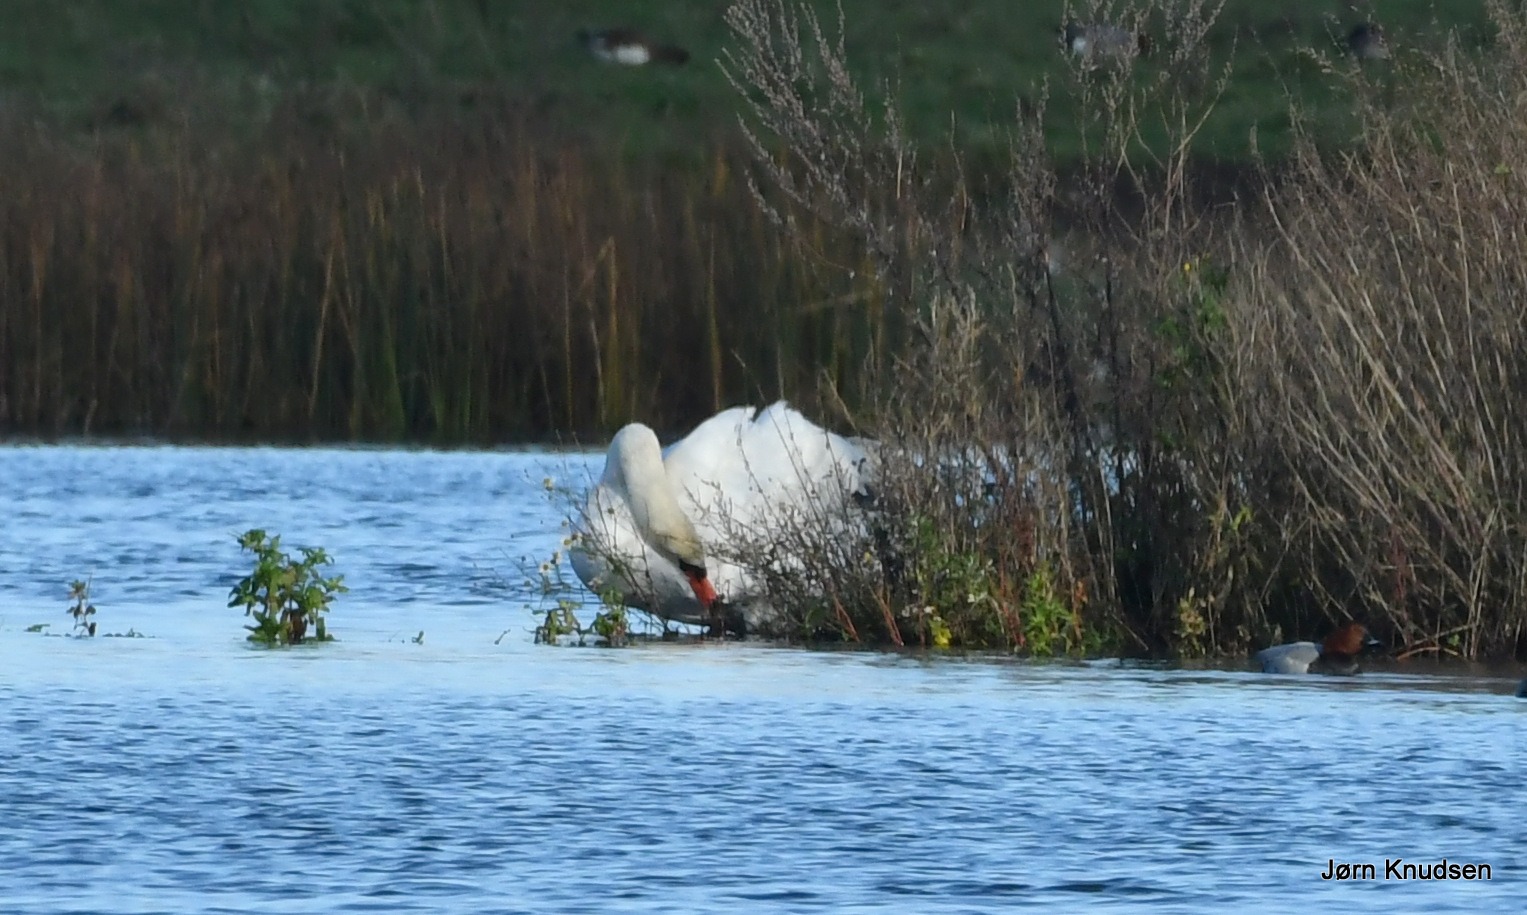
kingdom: Animalia
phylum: Chordata
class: Aves
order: Anseriformes
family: Anatidae
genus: Cygnus
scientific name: Cygnus olor
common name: Knopsvane
